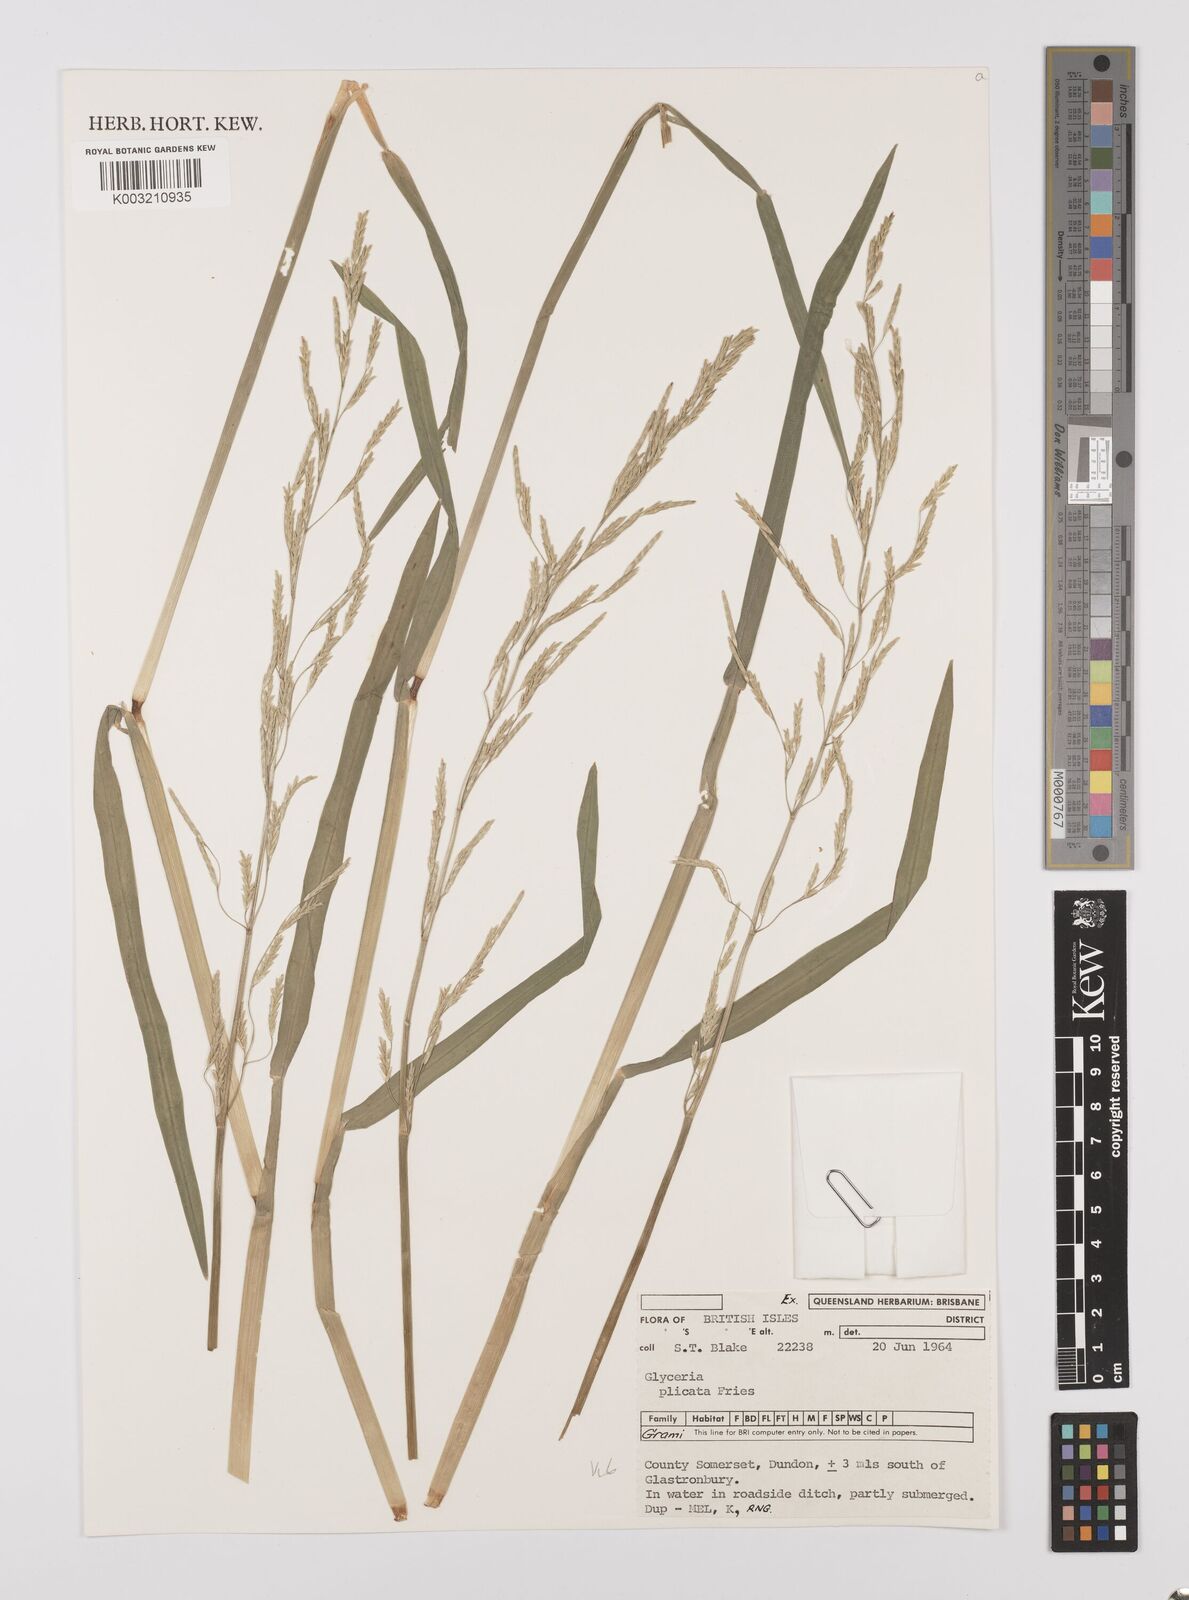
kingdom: Plantae
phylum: Tracheophyta
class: Liliopsida
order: Poales
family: Poaceae
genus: Glyceria
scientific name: Glyceria notata
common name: Plicate sweet-grass
